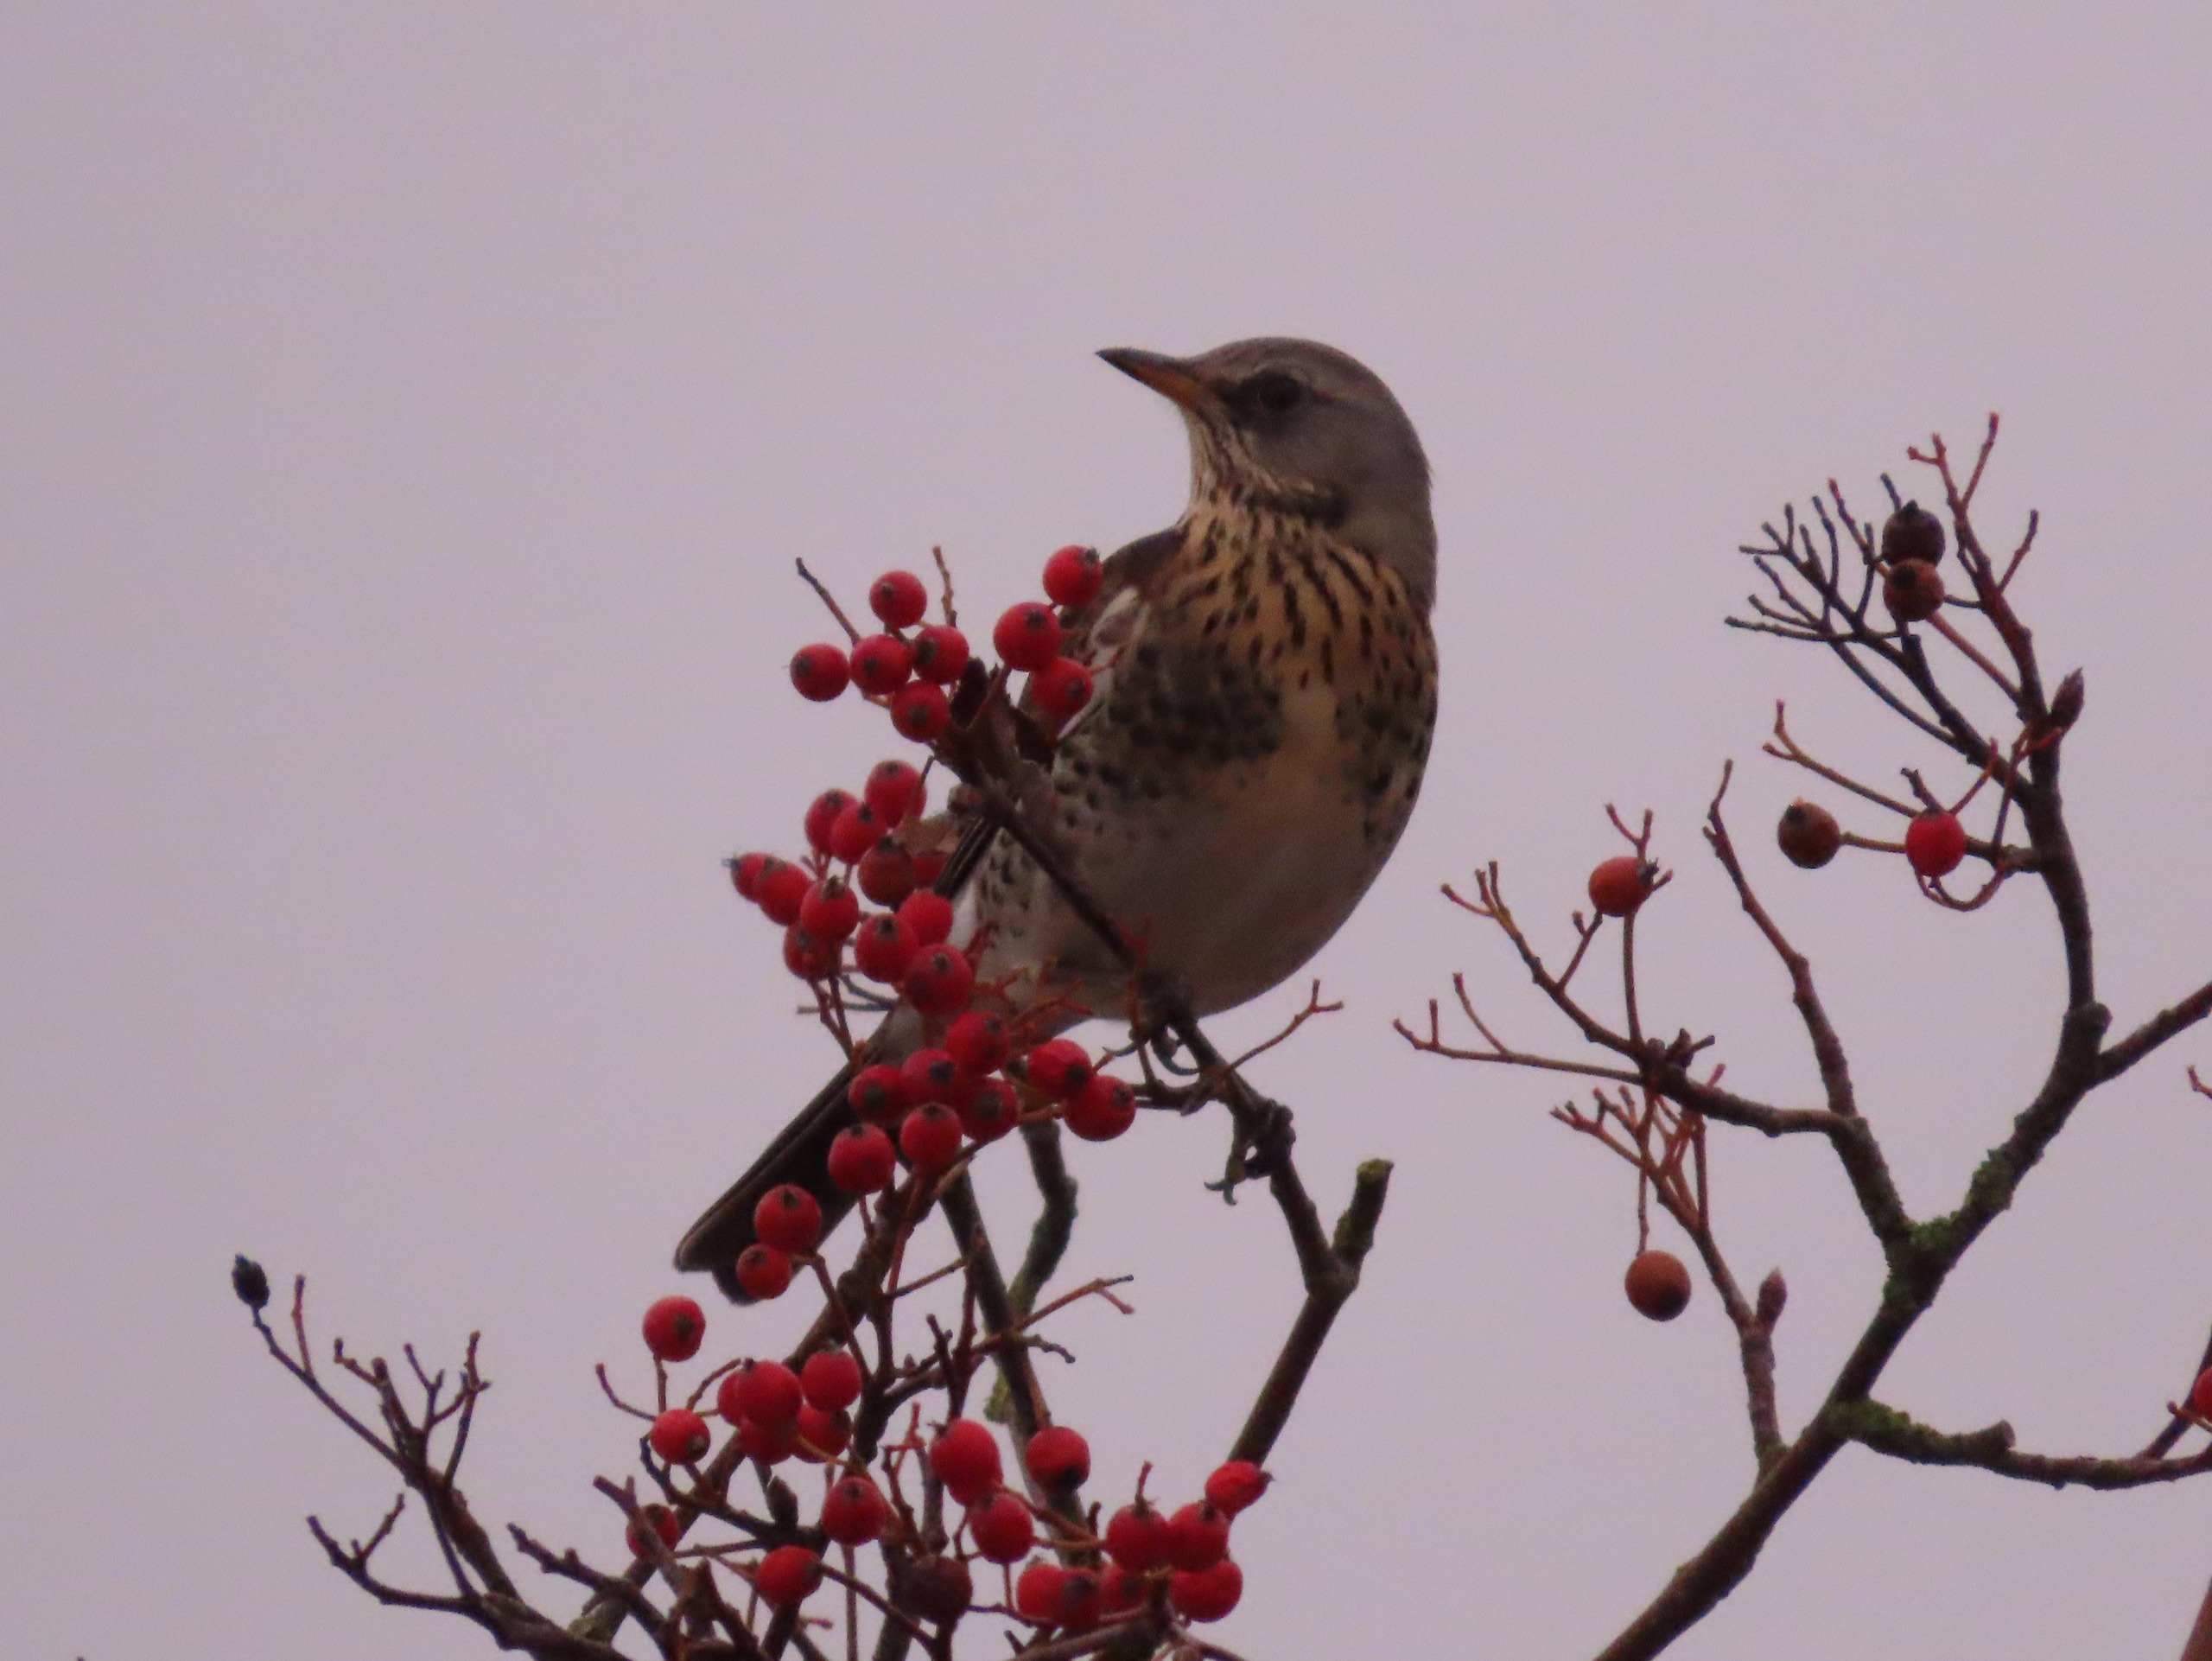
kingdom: Animalia
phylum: Chordata
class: Aves
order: Passeriformes
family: Turdidae
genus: Turdus
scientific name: Turdus pilaris
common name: Sjagger
